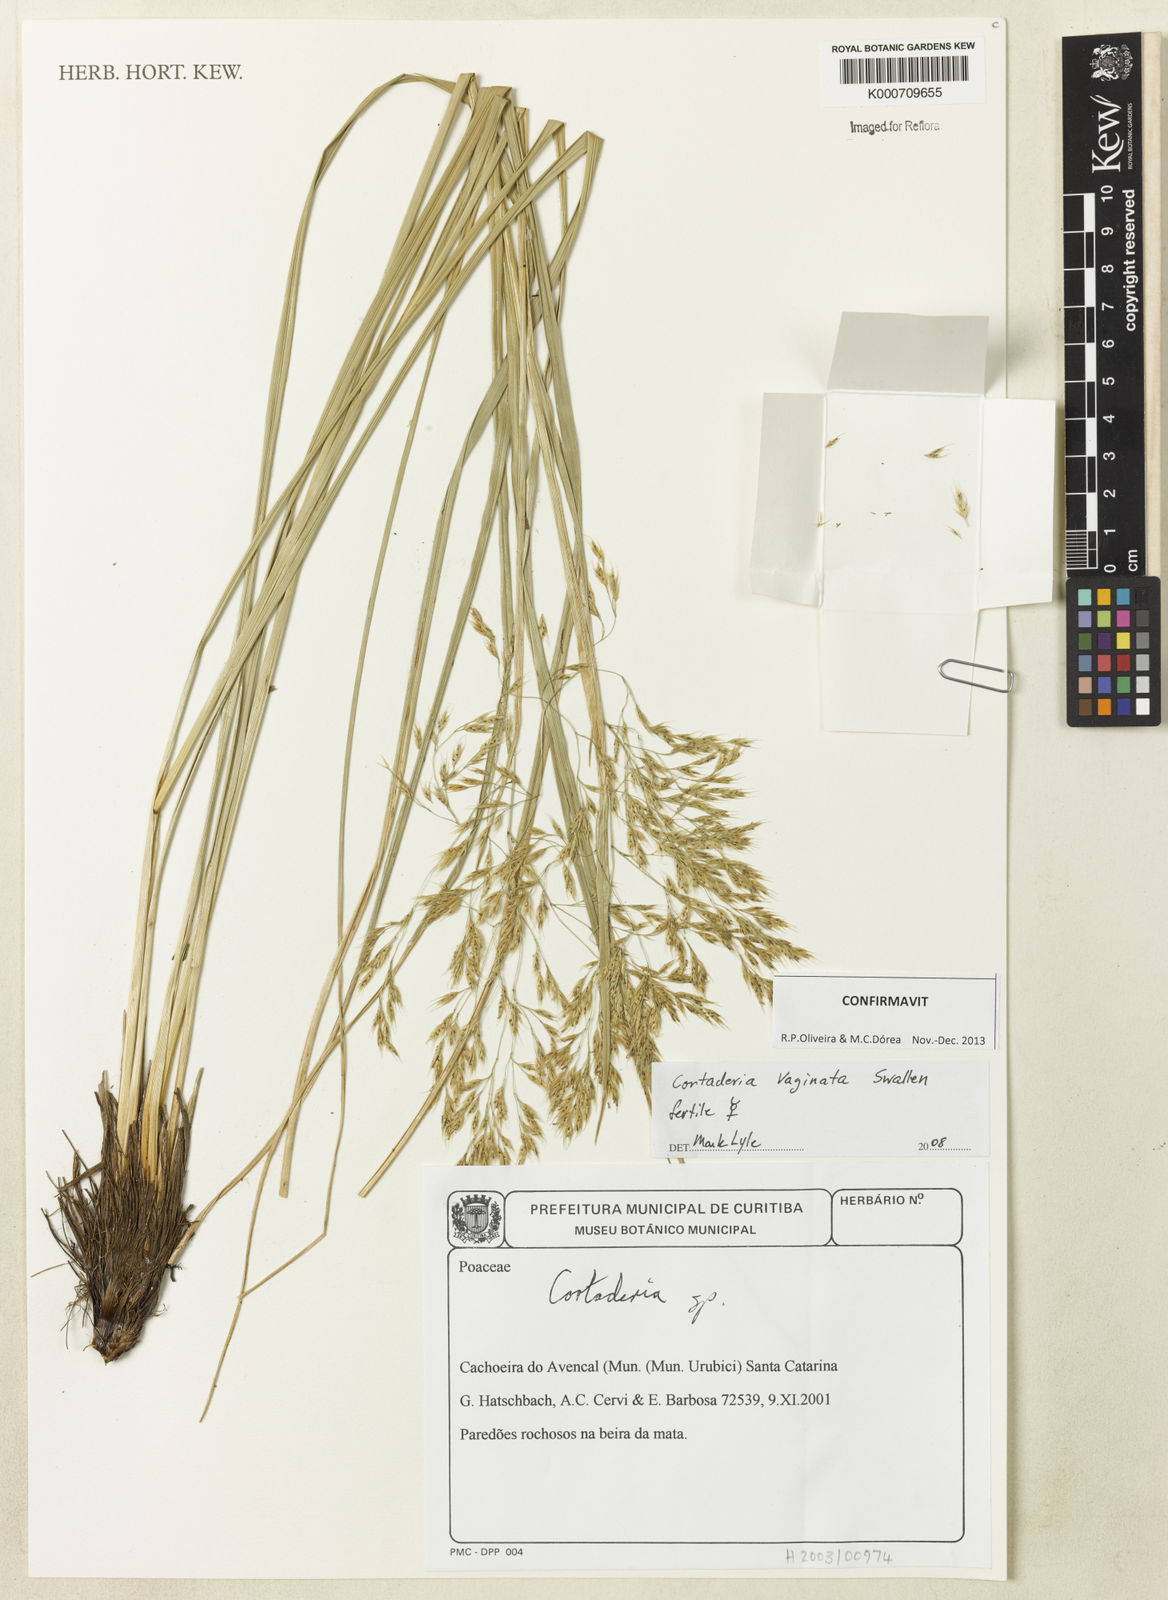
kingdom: Plantae
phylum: Tracheophyta
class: Liliopsida
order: Poales
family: Poaceae
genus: Cortaderia
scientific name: Cortaderia vaginata
